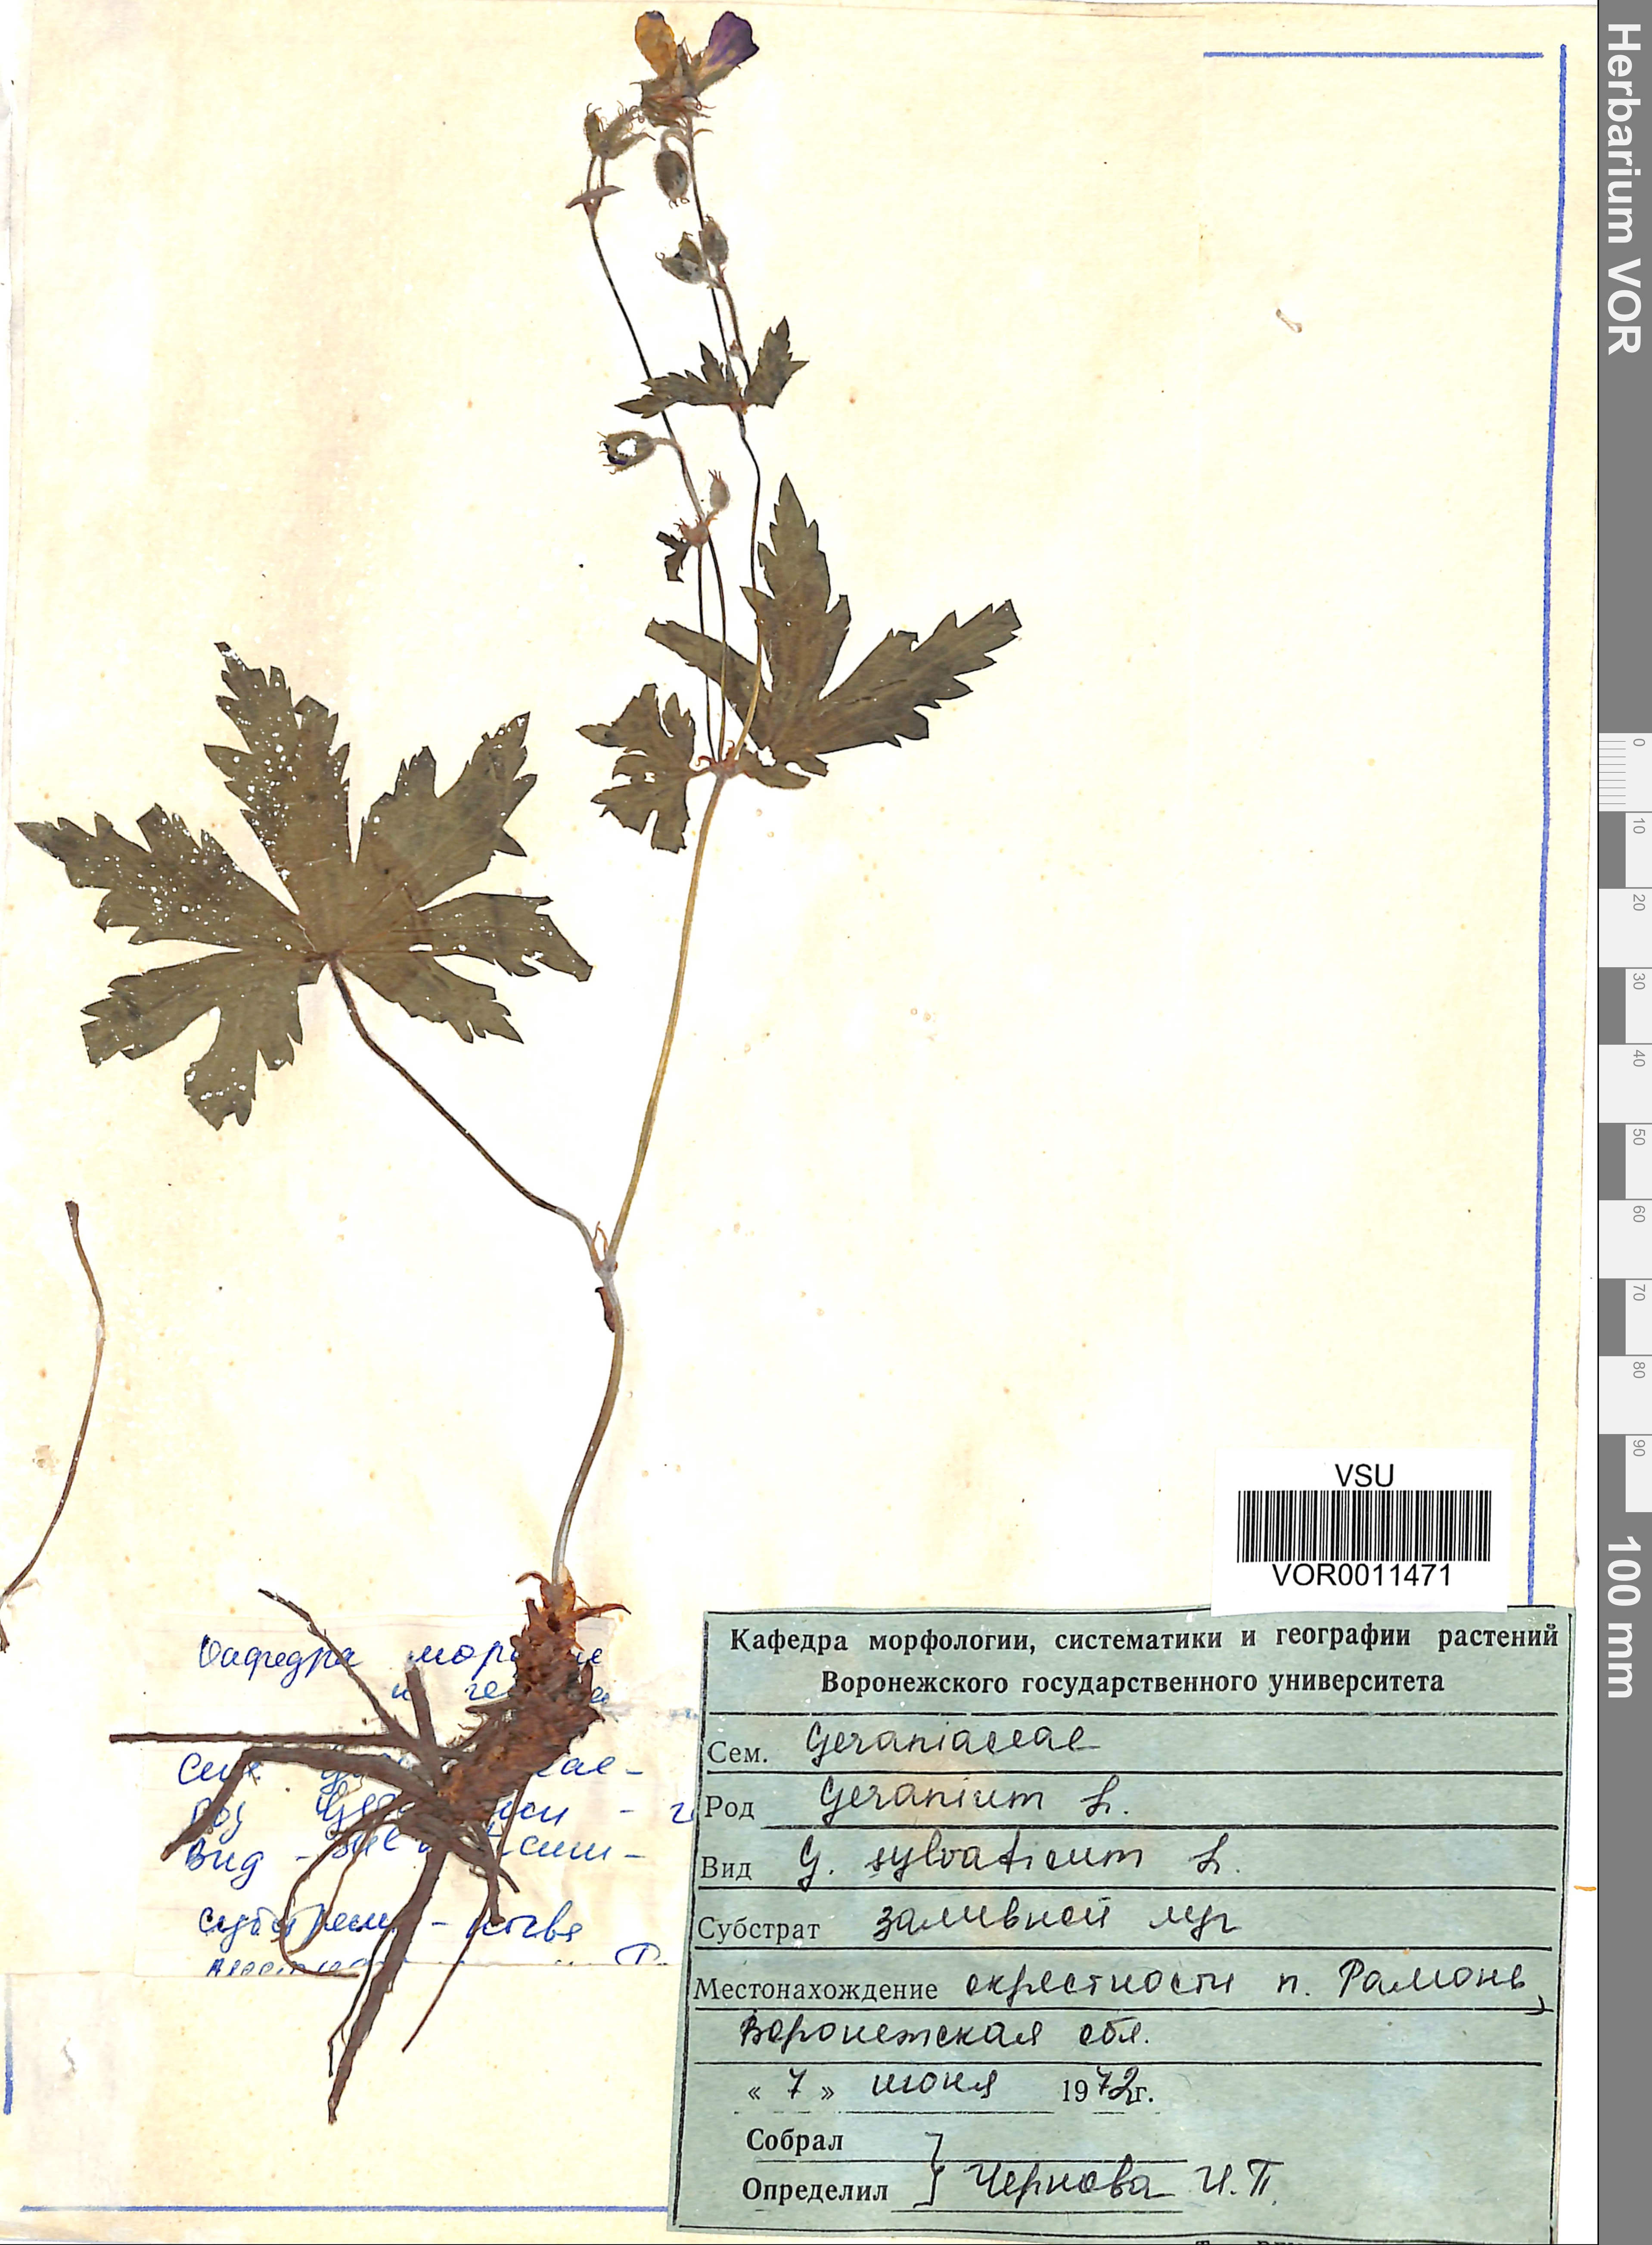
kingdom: Plantae
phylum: Tracheophyta
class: Magnoliopsida
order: Geraniales
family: Geraniaceae
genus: Geranium
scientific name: Geranium sibiricum
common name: Siberian crane's-bill
